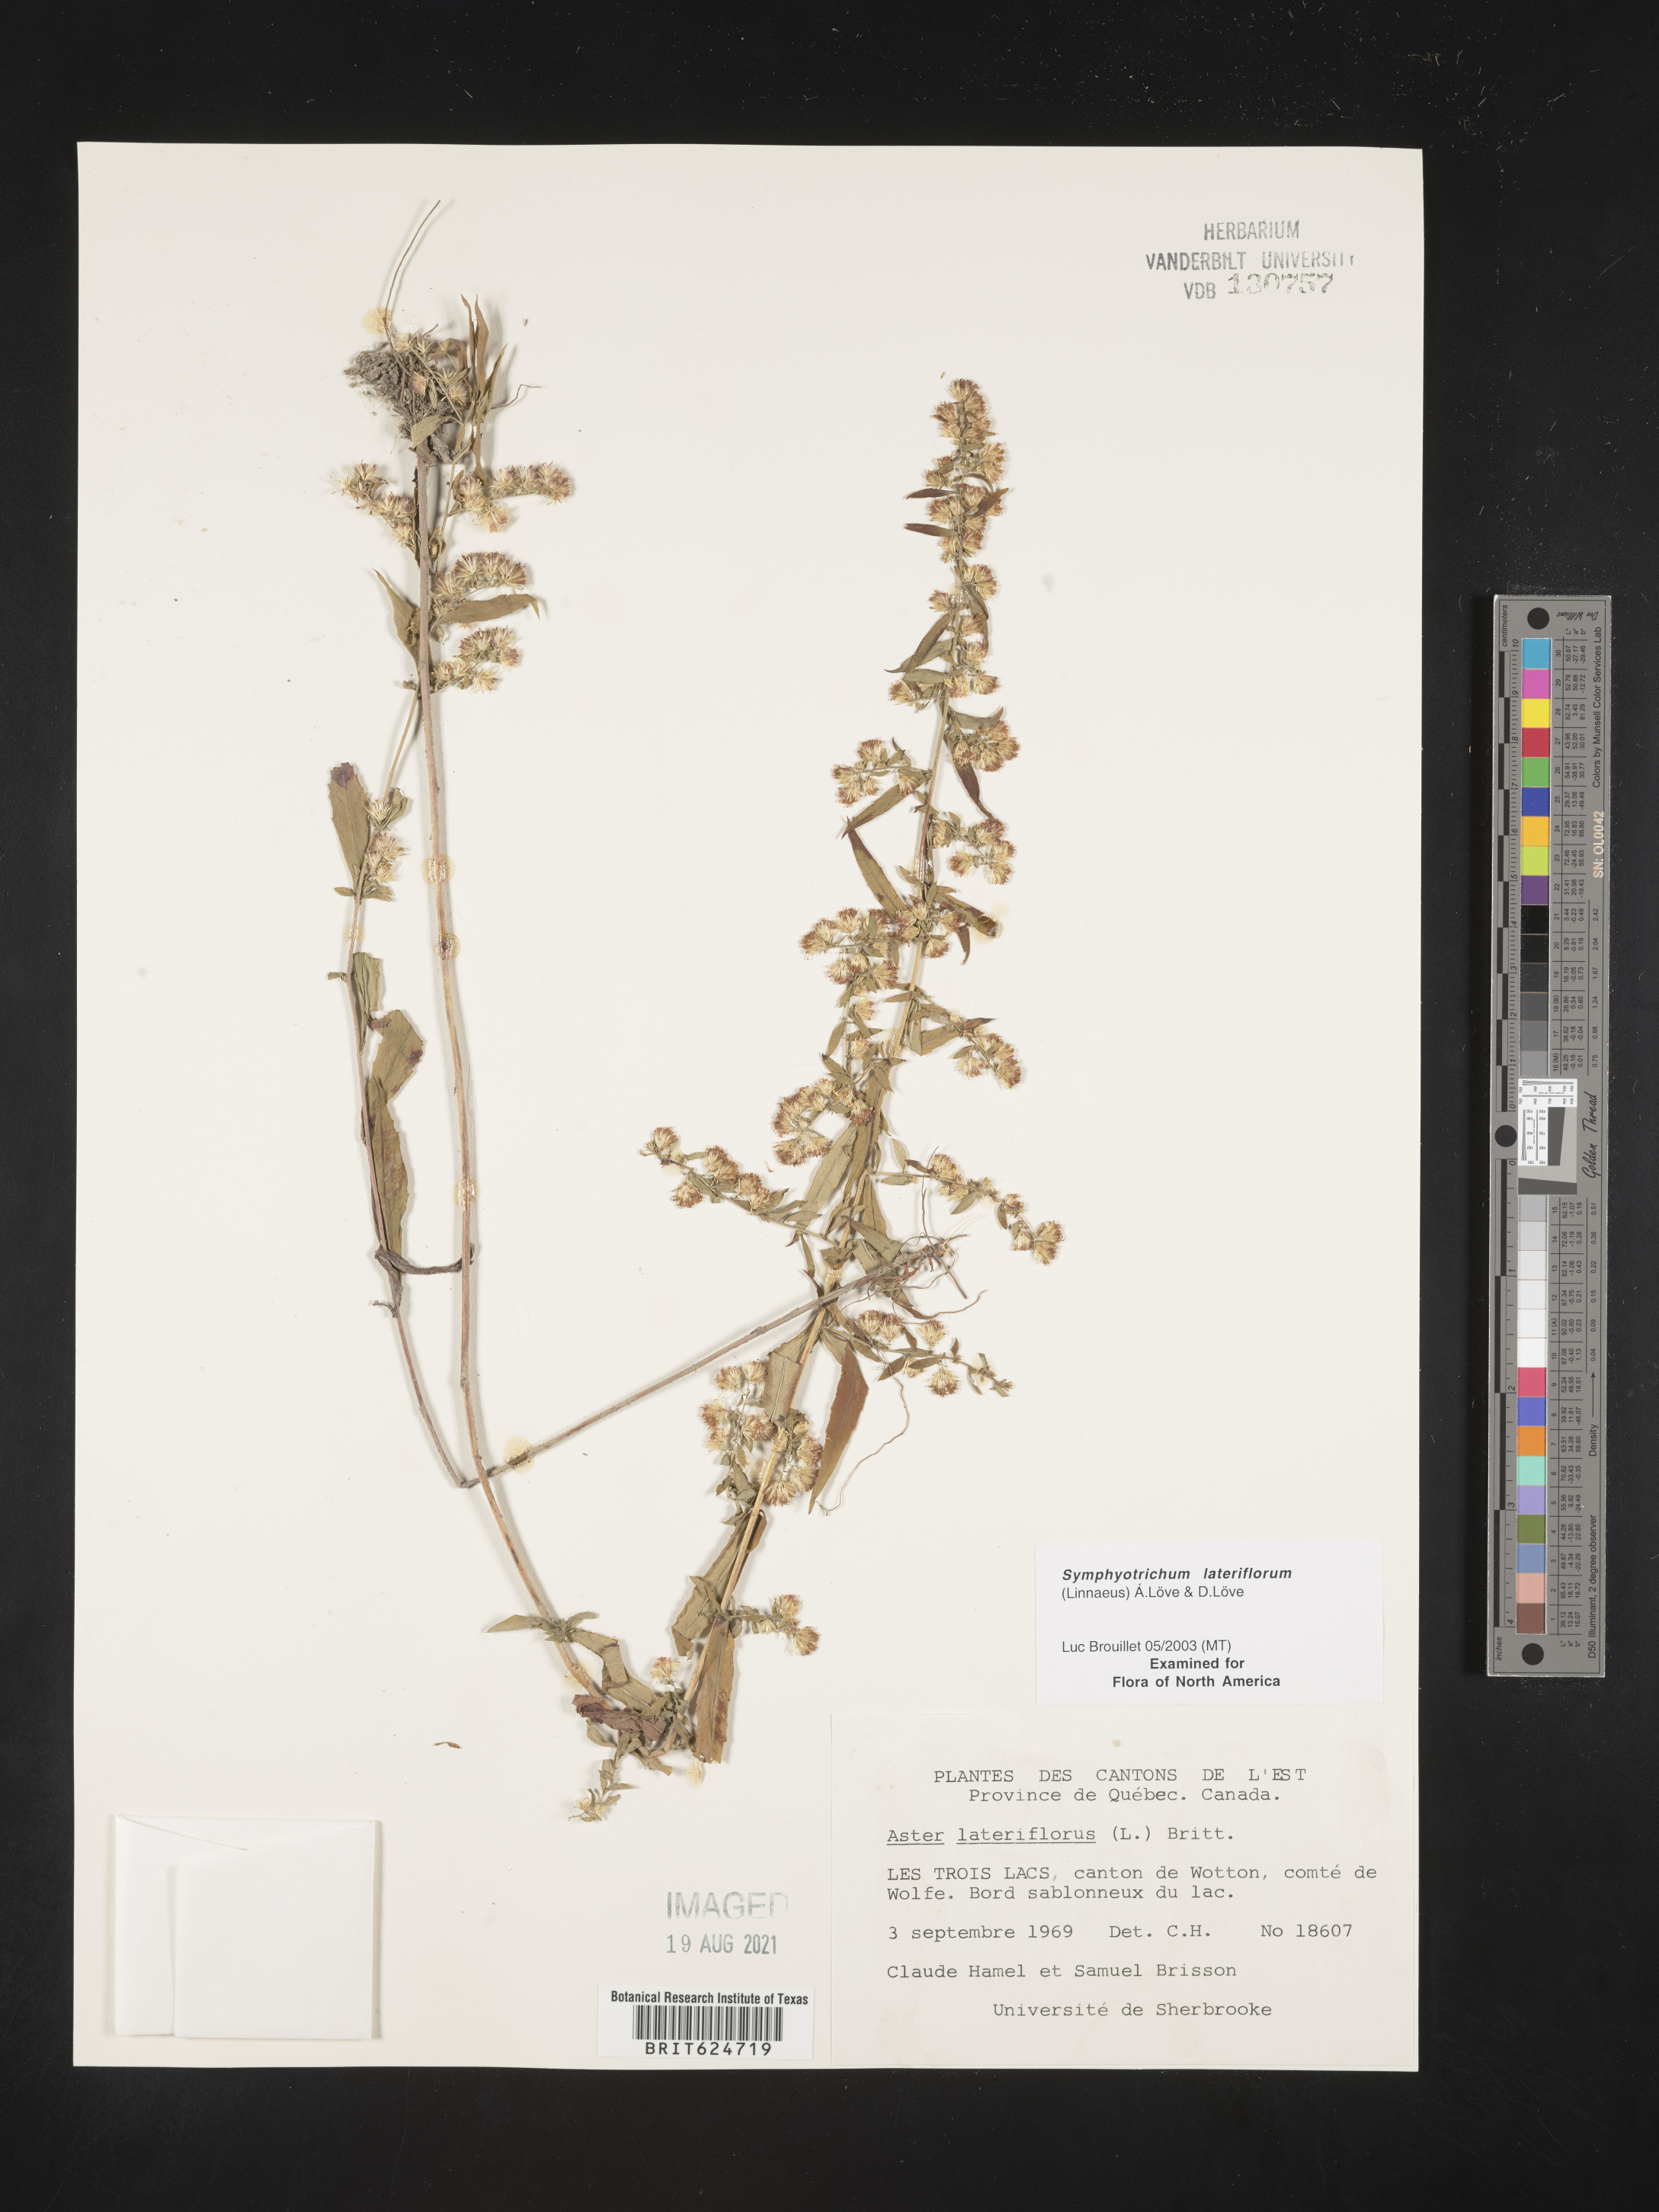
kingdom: Plantae
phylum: Tracheophyta
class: Magnoliopsida
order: Asterales
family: Asteraceae
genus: Symphyotrichum
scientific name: Symphyotrichum lateriflorum
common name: Calico aster
